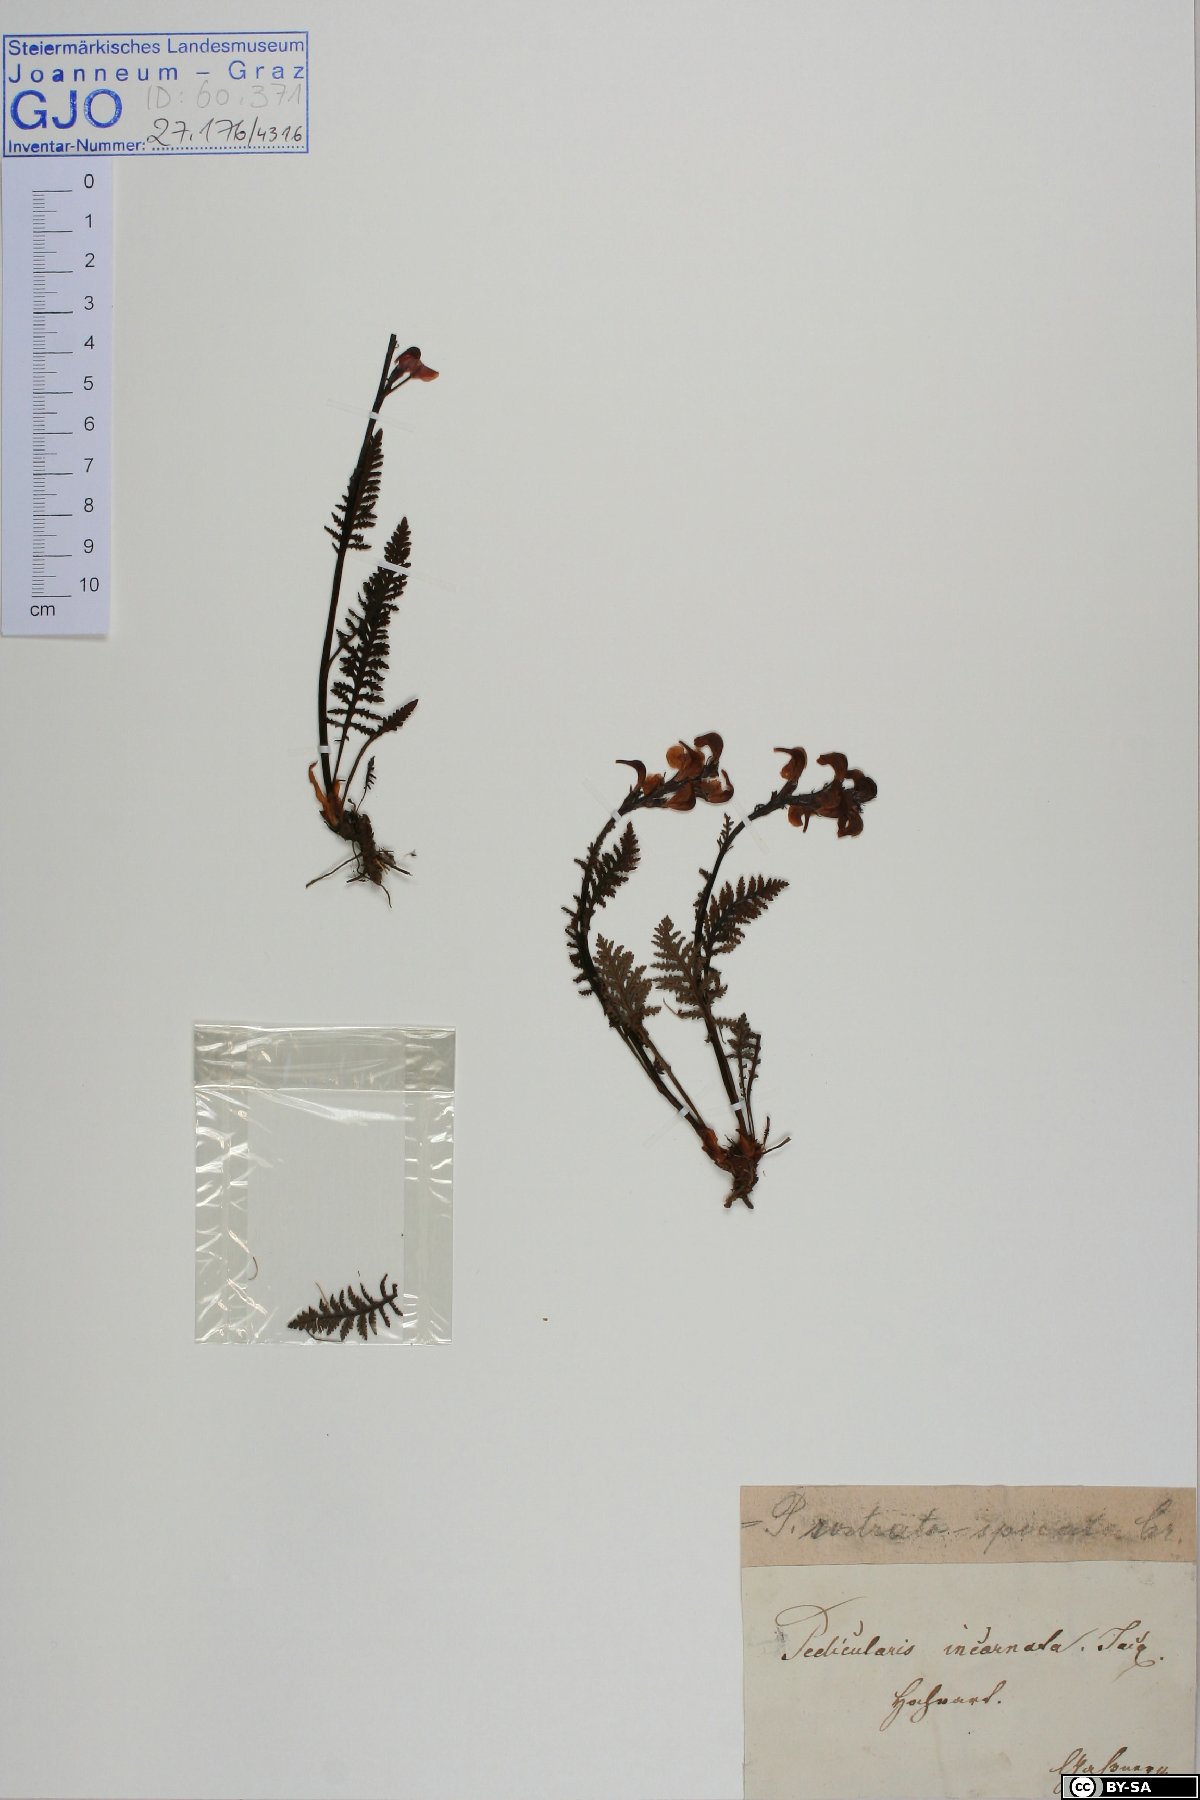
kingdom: Plantae
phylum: Tracheophyta
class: Magnoliopsida
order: Lamiales
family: Orobanchaceae
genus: Pedicularis
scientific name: Pedicularis rostratospicata
